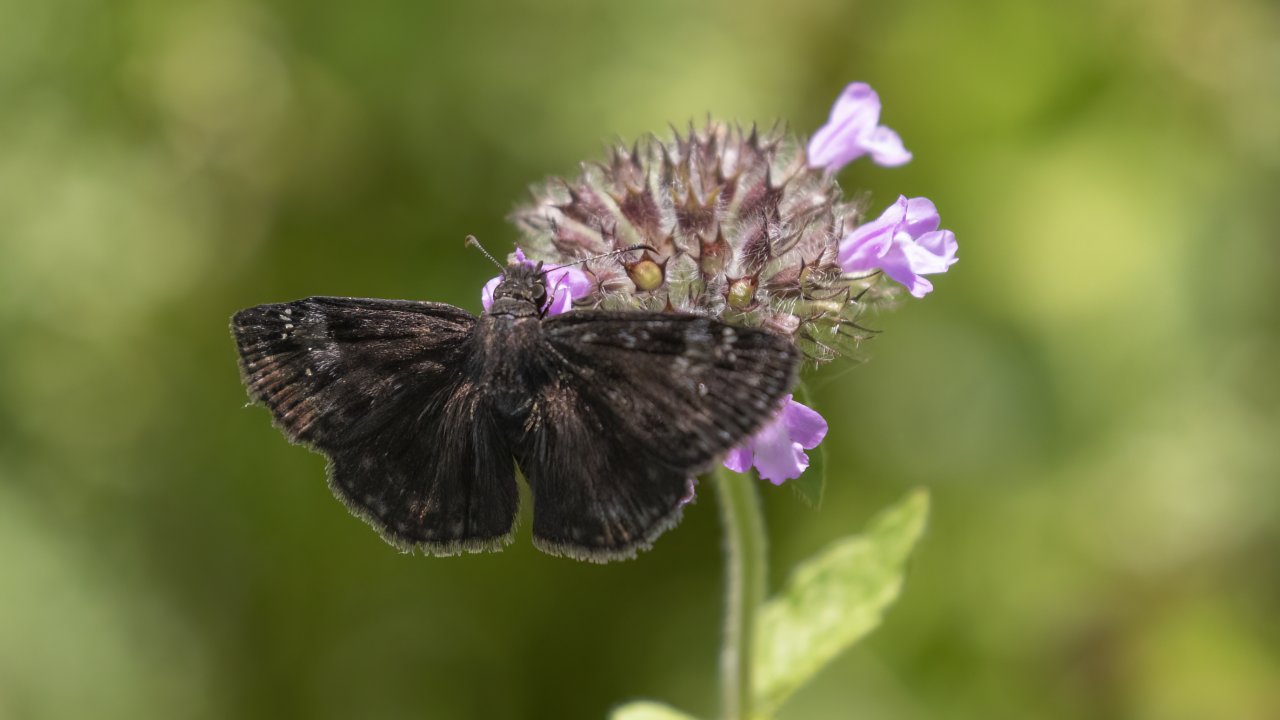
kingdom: Animalia
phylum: Arthropoda
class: Insecta
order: Lepidoptera
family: Hesperiidae
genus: Gesta
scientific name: Gesta
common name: Wild Indigo Duskywing
